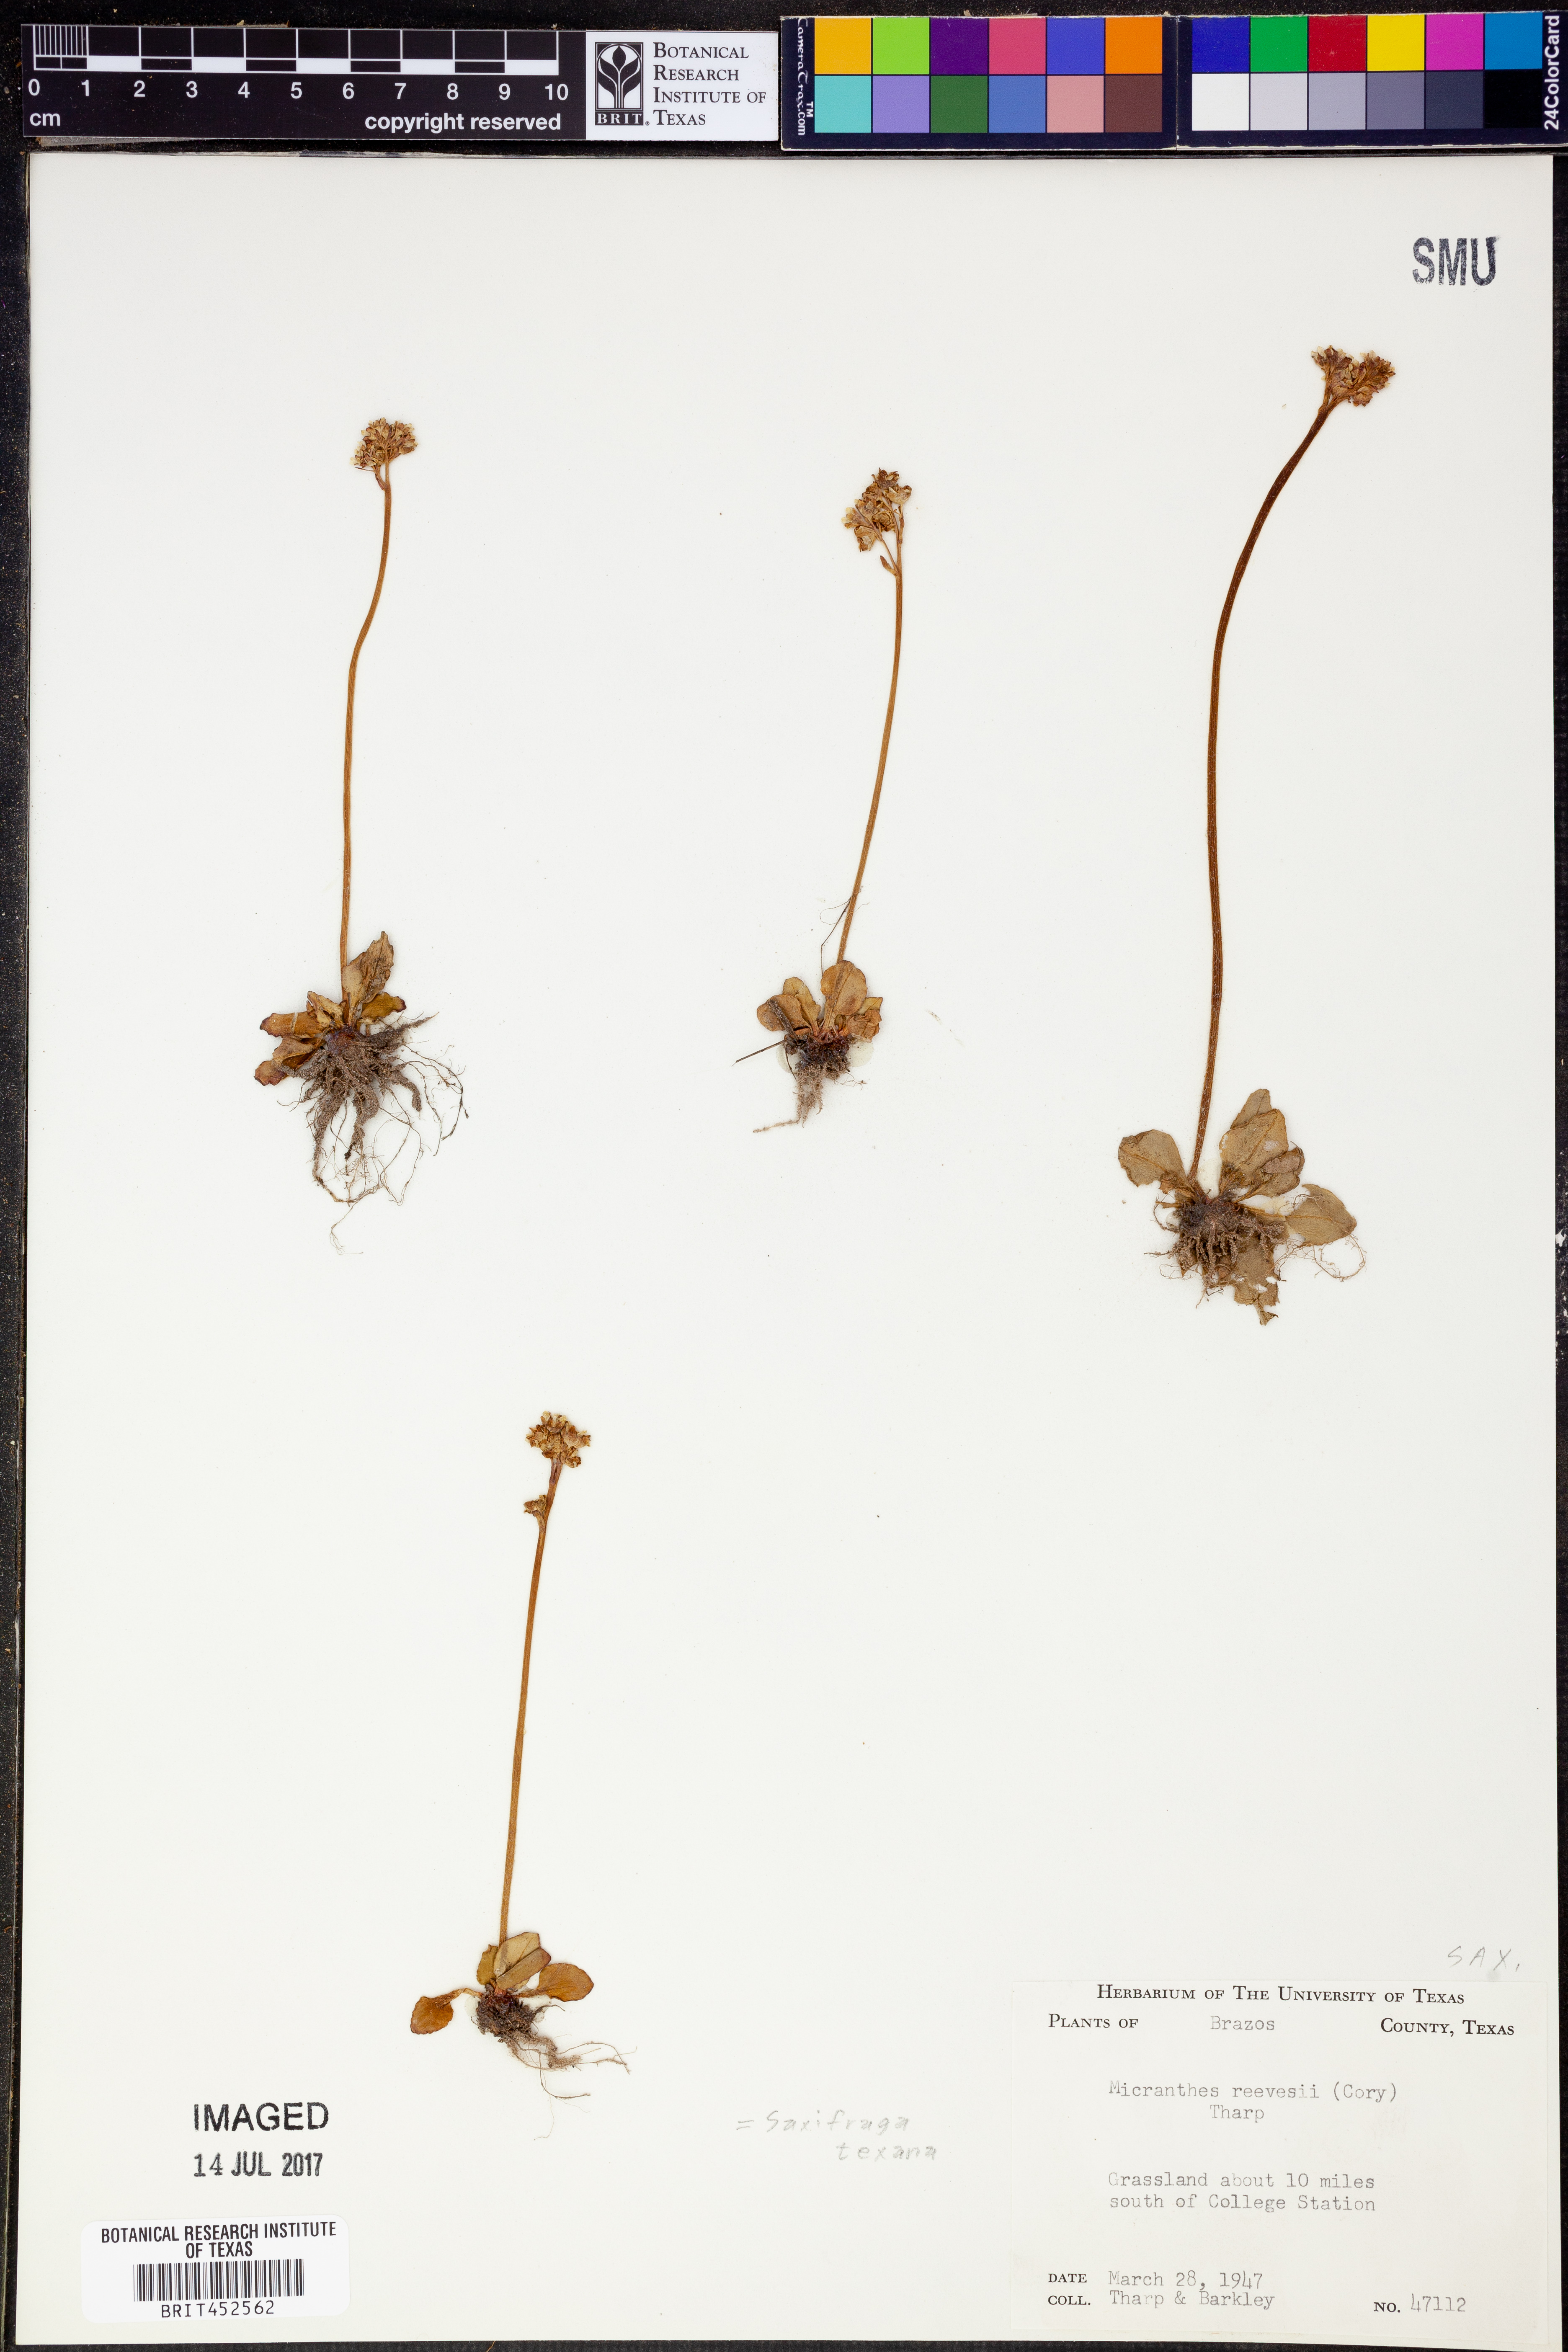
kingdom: Plantae
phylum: Tracheophyta
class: Magnoliopsida
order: Saxifragales
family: Saxifragaceae
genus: Micranthes
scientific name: Micranthes texana
